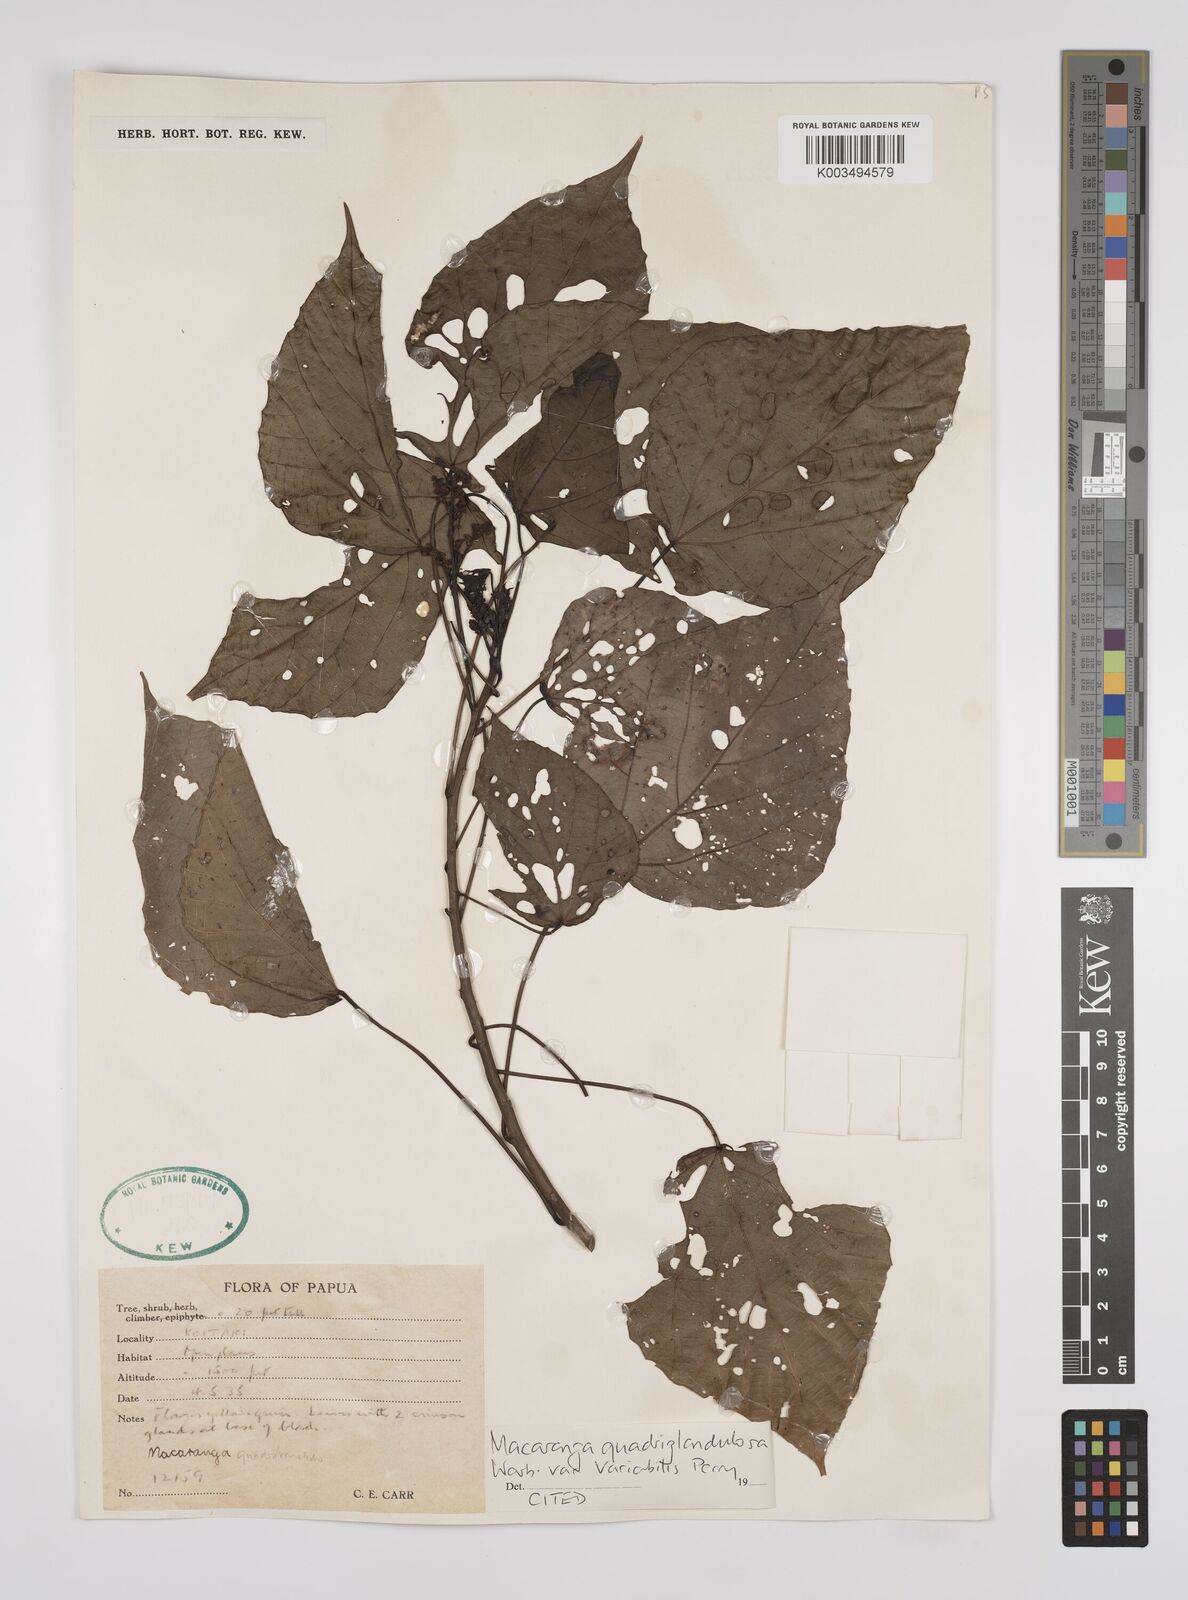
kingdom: Plantae
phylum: Tracheophyta
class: Magnoliopsida
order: Malpighiales
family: Euphorbiaceae
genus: Macaranga
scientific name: Macaranga quadriglandulosa
